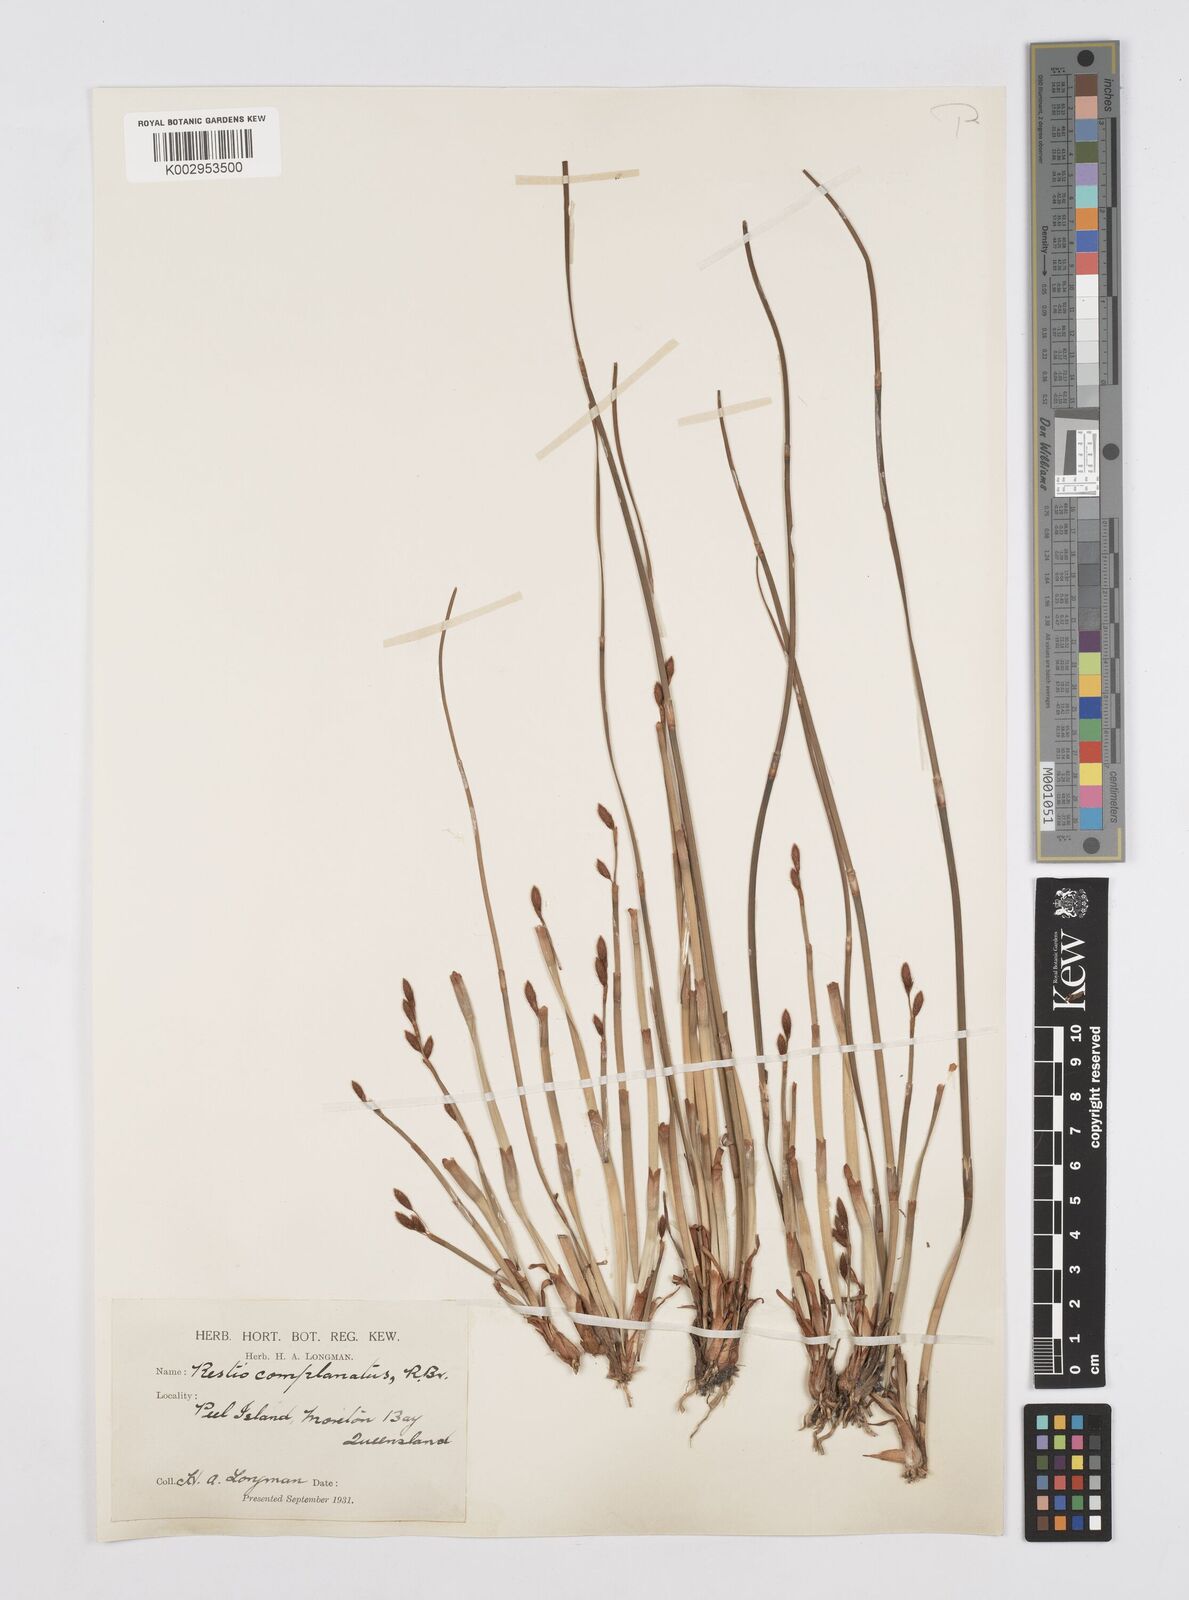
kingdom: Plantae
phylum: Tracheophyta
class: Liliopsida
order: Poales
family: Restionaceae
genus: Eurychorda
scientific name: Eurychorda complanata
